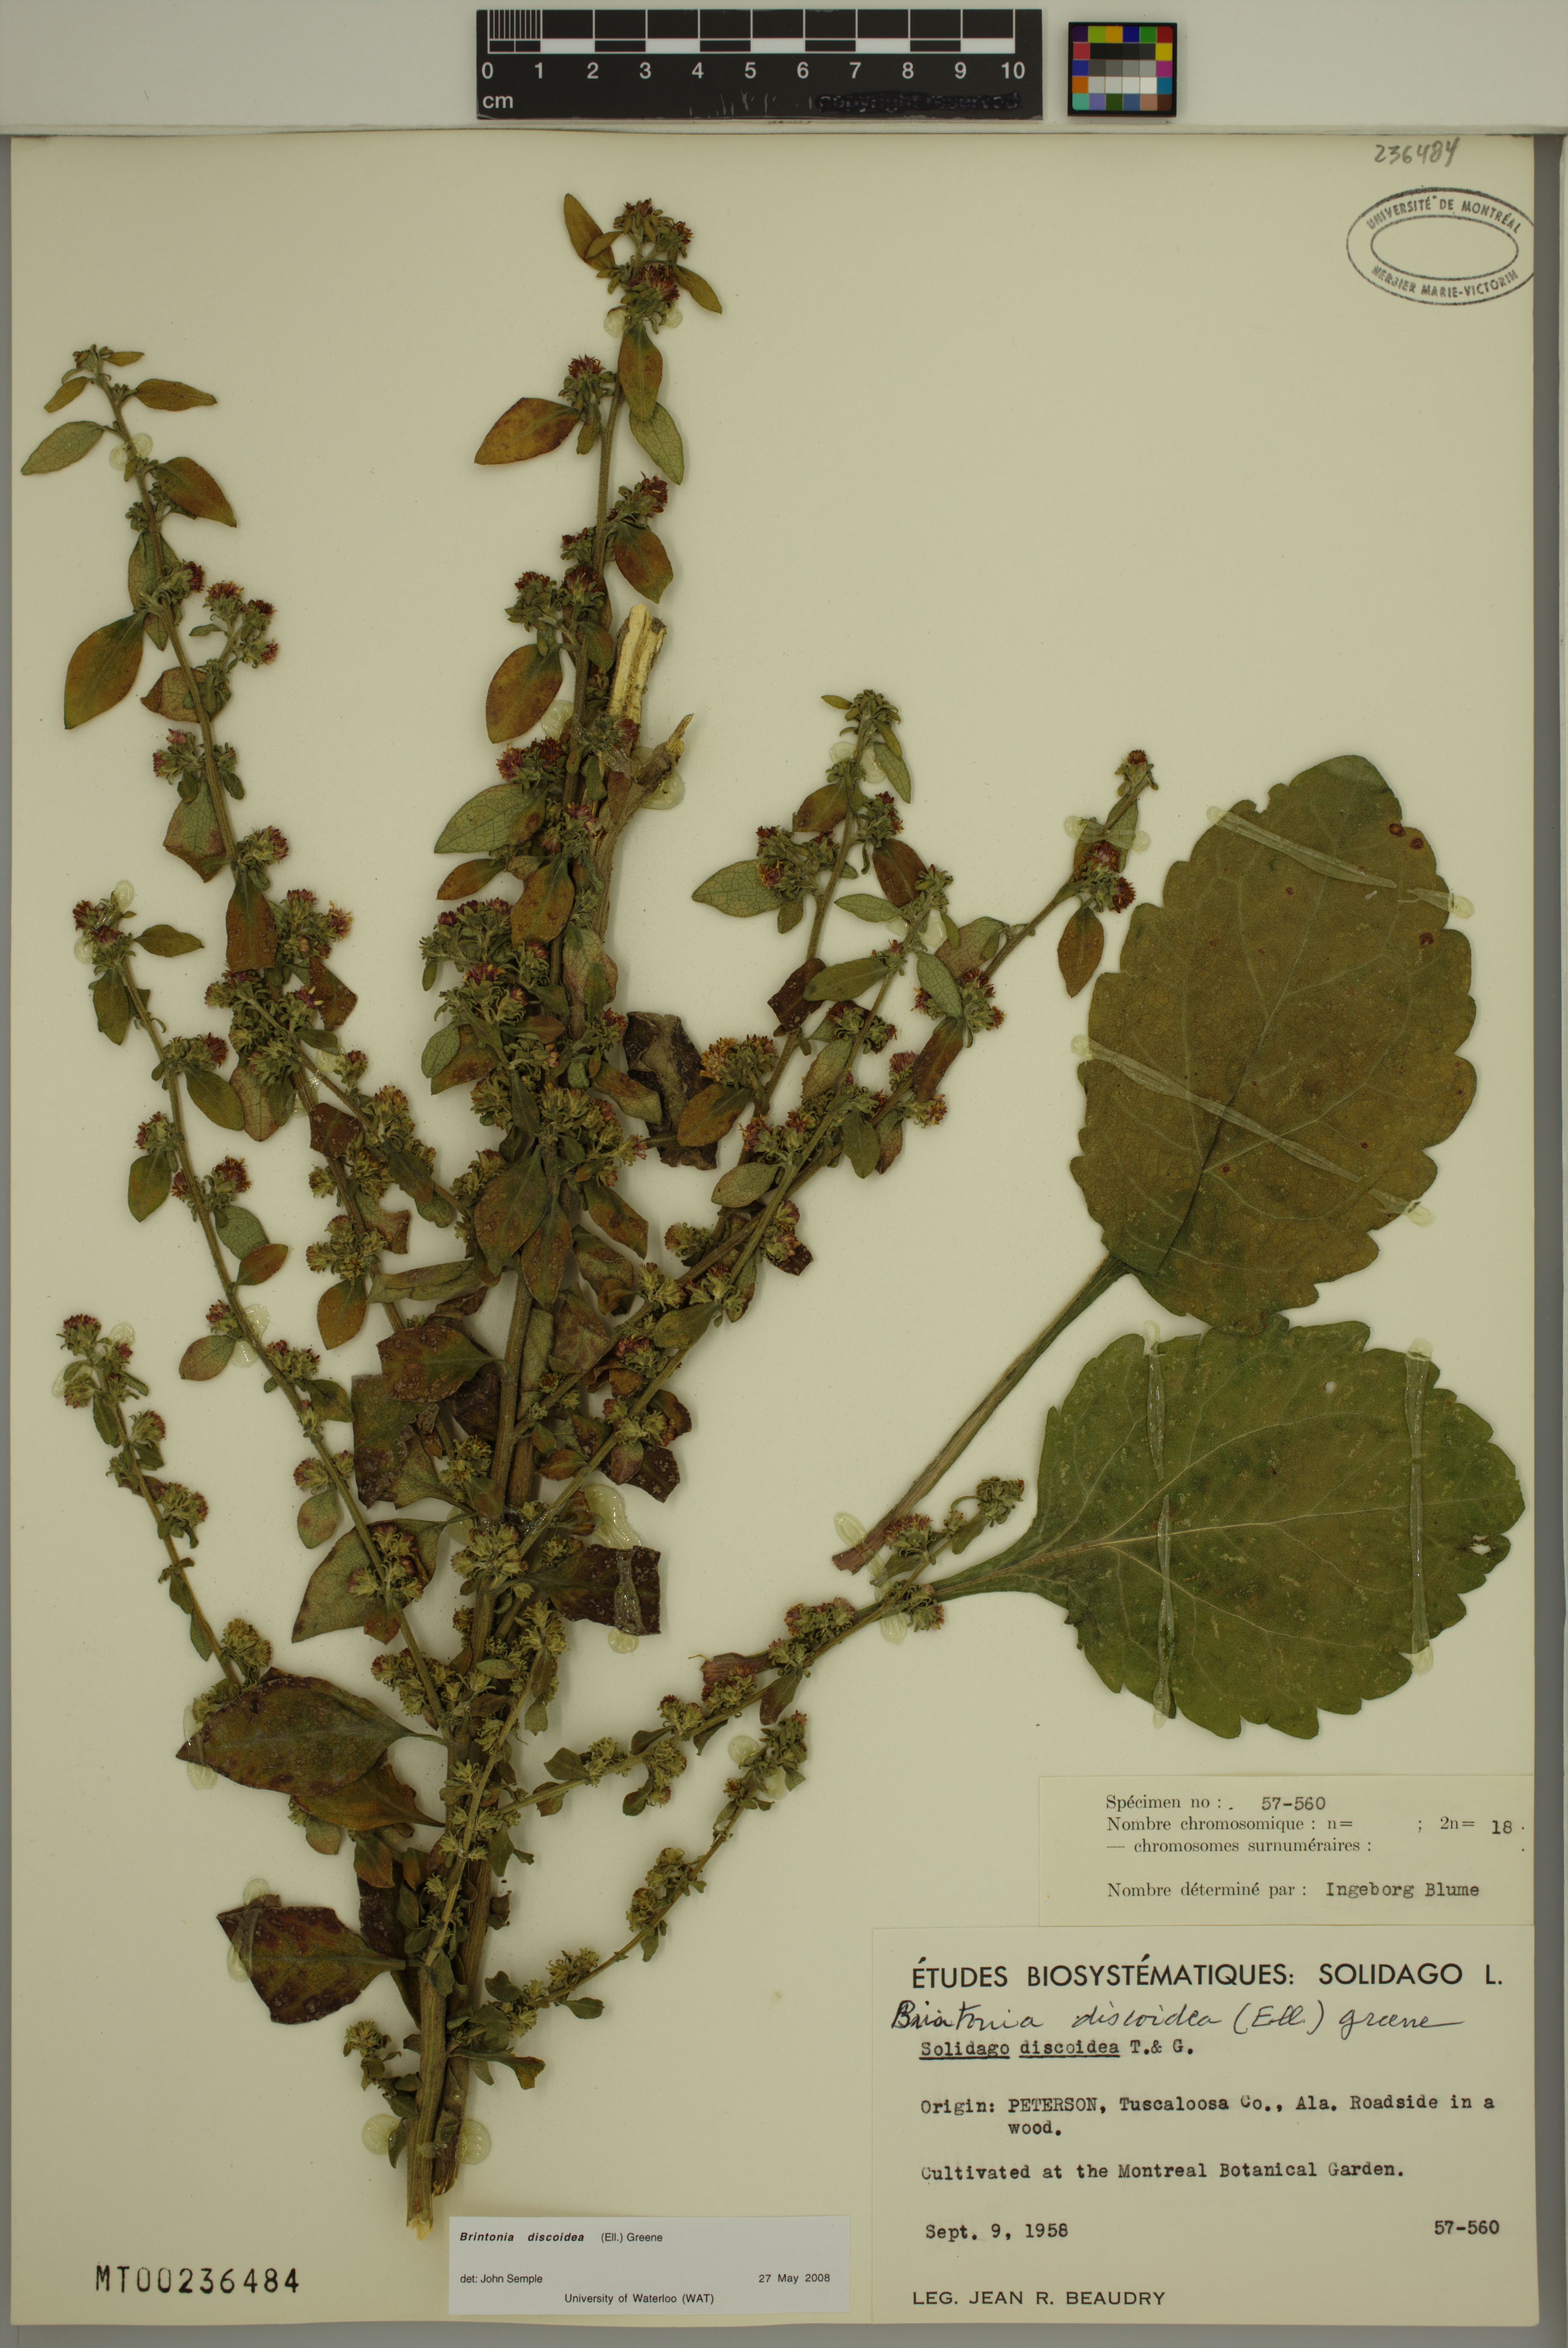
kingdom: Plantae
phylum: Tracheophyta
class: Magnoliopsida
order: Asterales
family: Asteraceae
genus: Solidago
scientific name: Solidago discoidea
